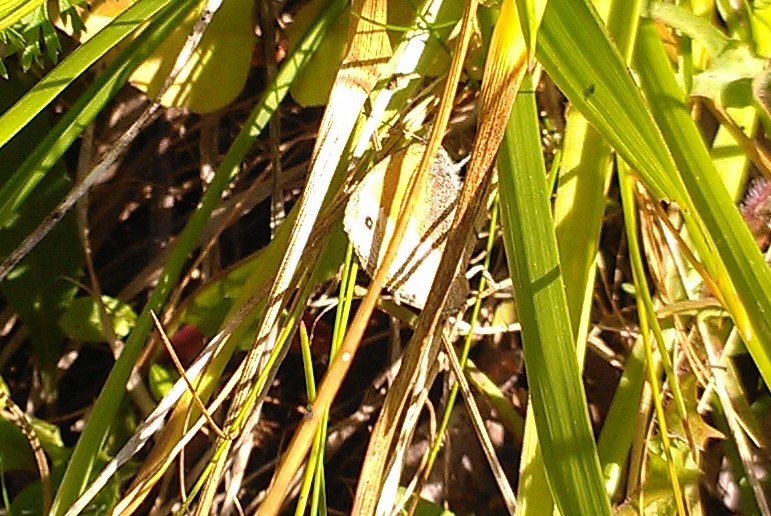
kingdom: Animalia
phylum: Arthropoda
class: Insecta
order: Lepidoptera
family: Nymphalidae
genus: Coenonympha
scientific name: Coenonympha tullia
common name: Large Heath
